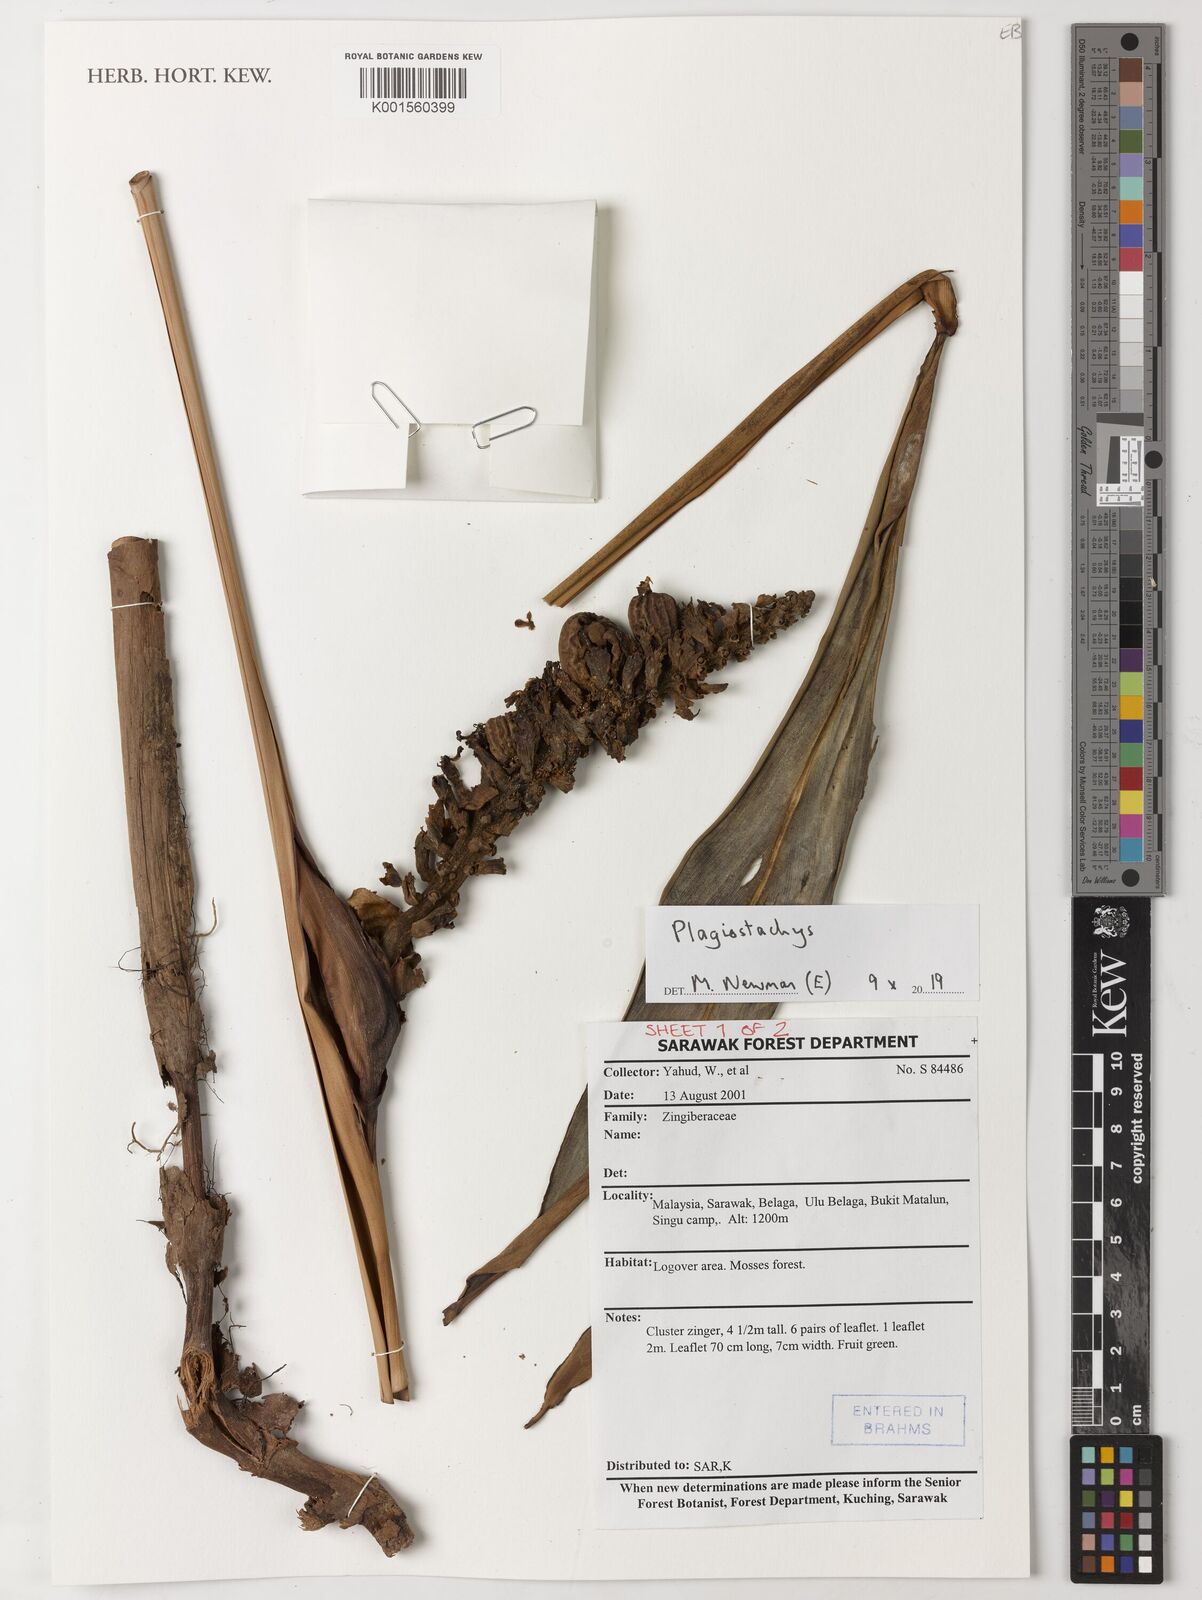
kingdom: Plantae
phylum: Tracheophyta
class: Liliopsida
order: Zingiberales
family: Zingiberaceae
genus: Plagiostachys
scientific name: Plagiostachys
